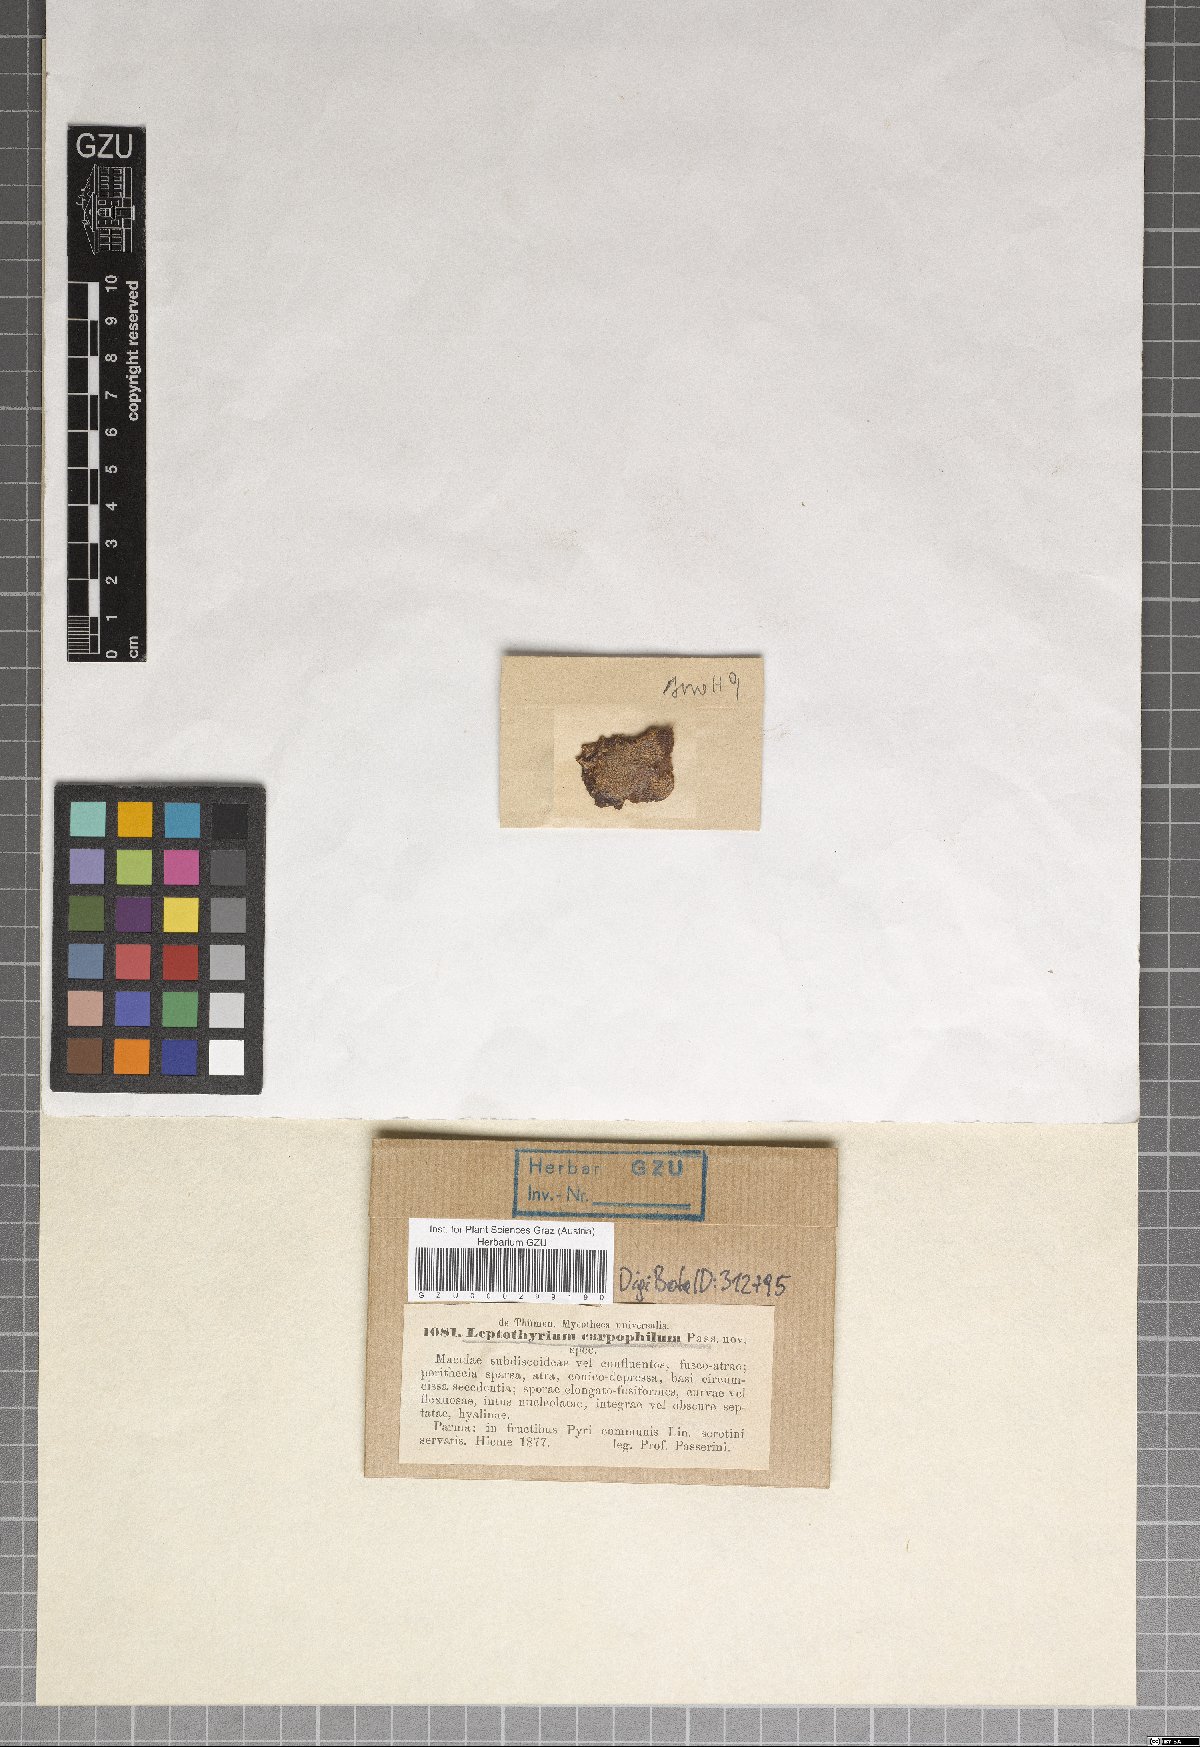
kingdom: Fungi
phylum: Ascomycota
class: Dothideomycetes
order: Pleosporales
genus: Leptothyrium
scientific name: Leptothyrium
